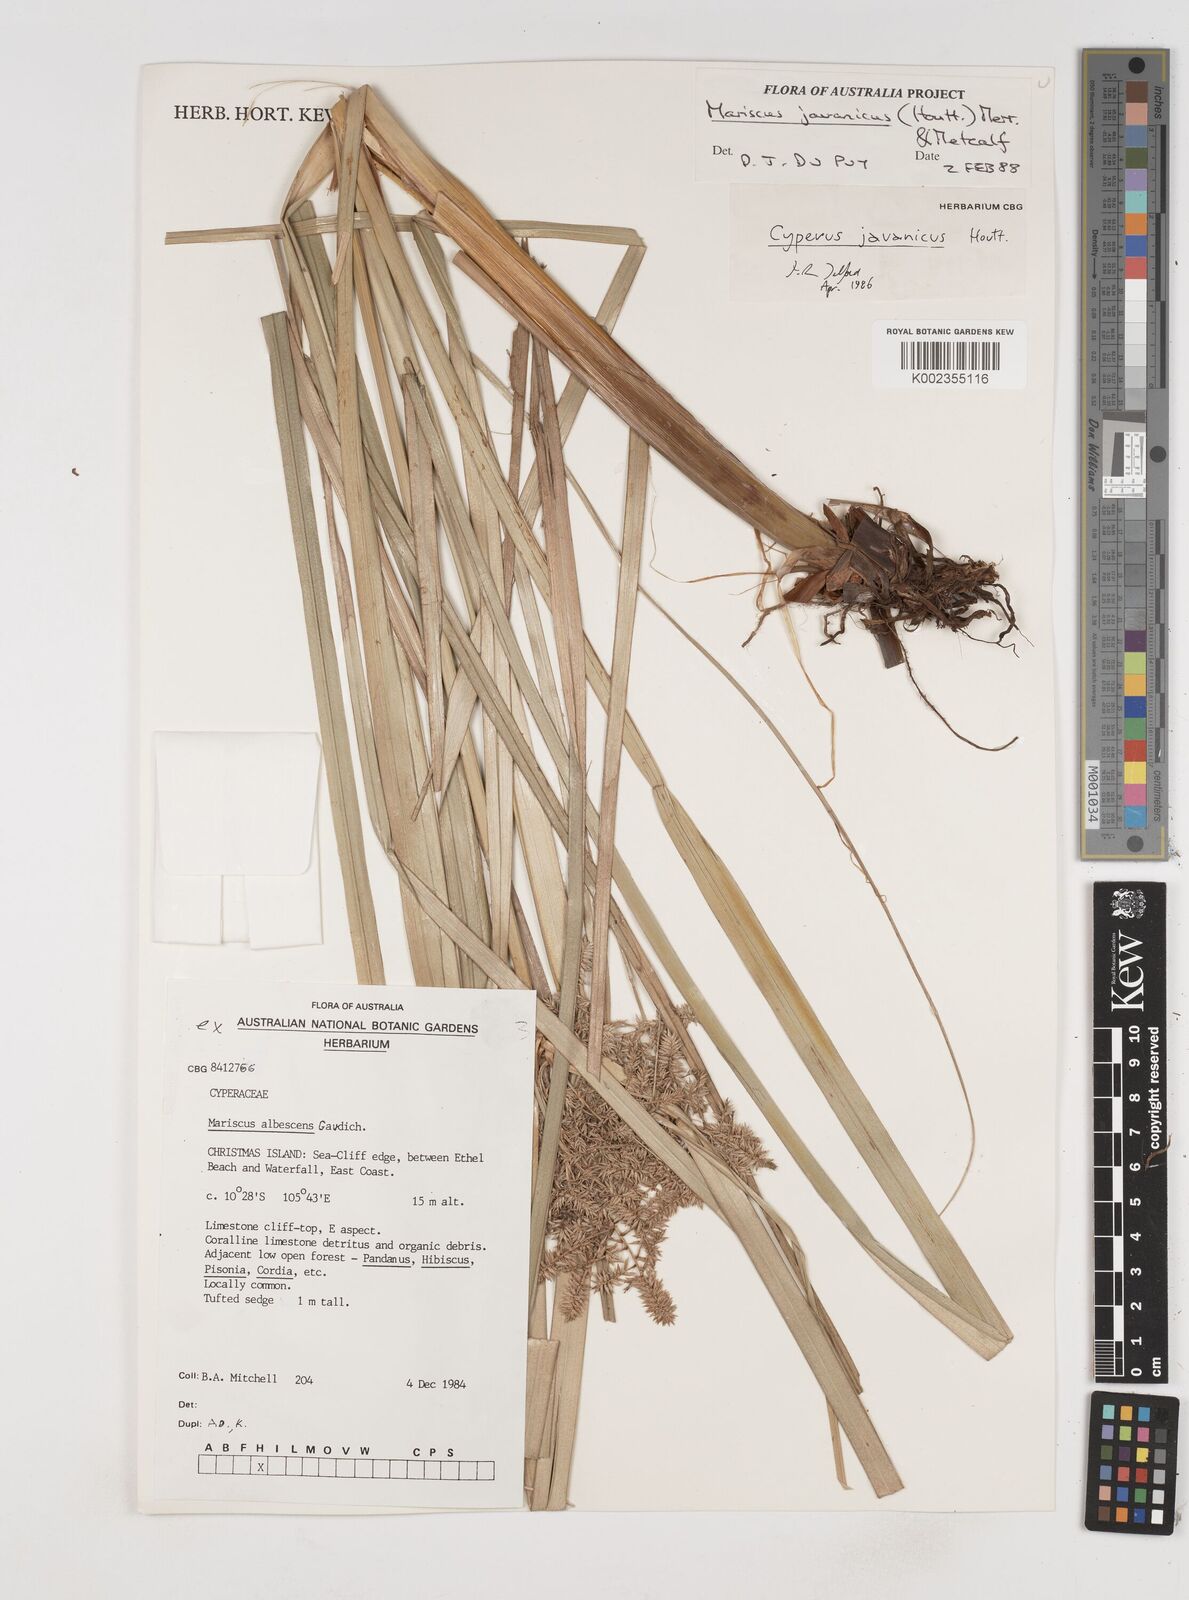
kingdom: Plantae
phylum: Tracheophyta
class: Liliopsida
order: Poales
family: Cyperaceae
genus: Cyperus
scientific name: Cyperus javanicus
